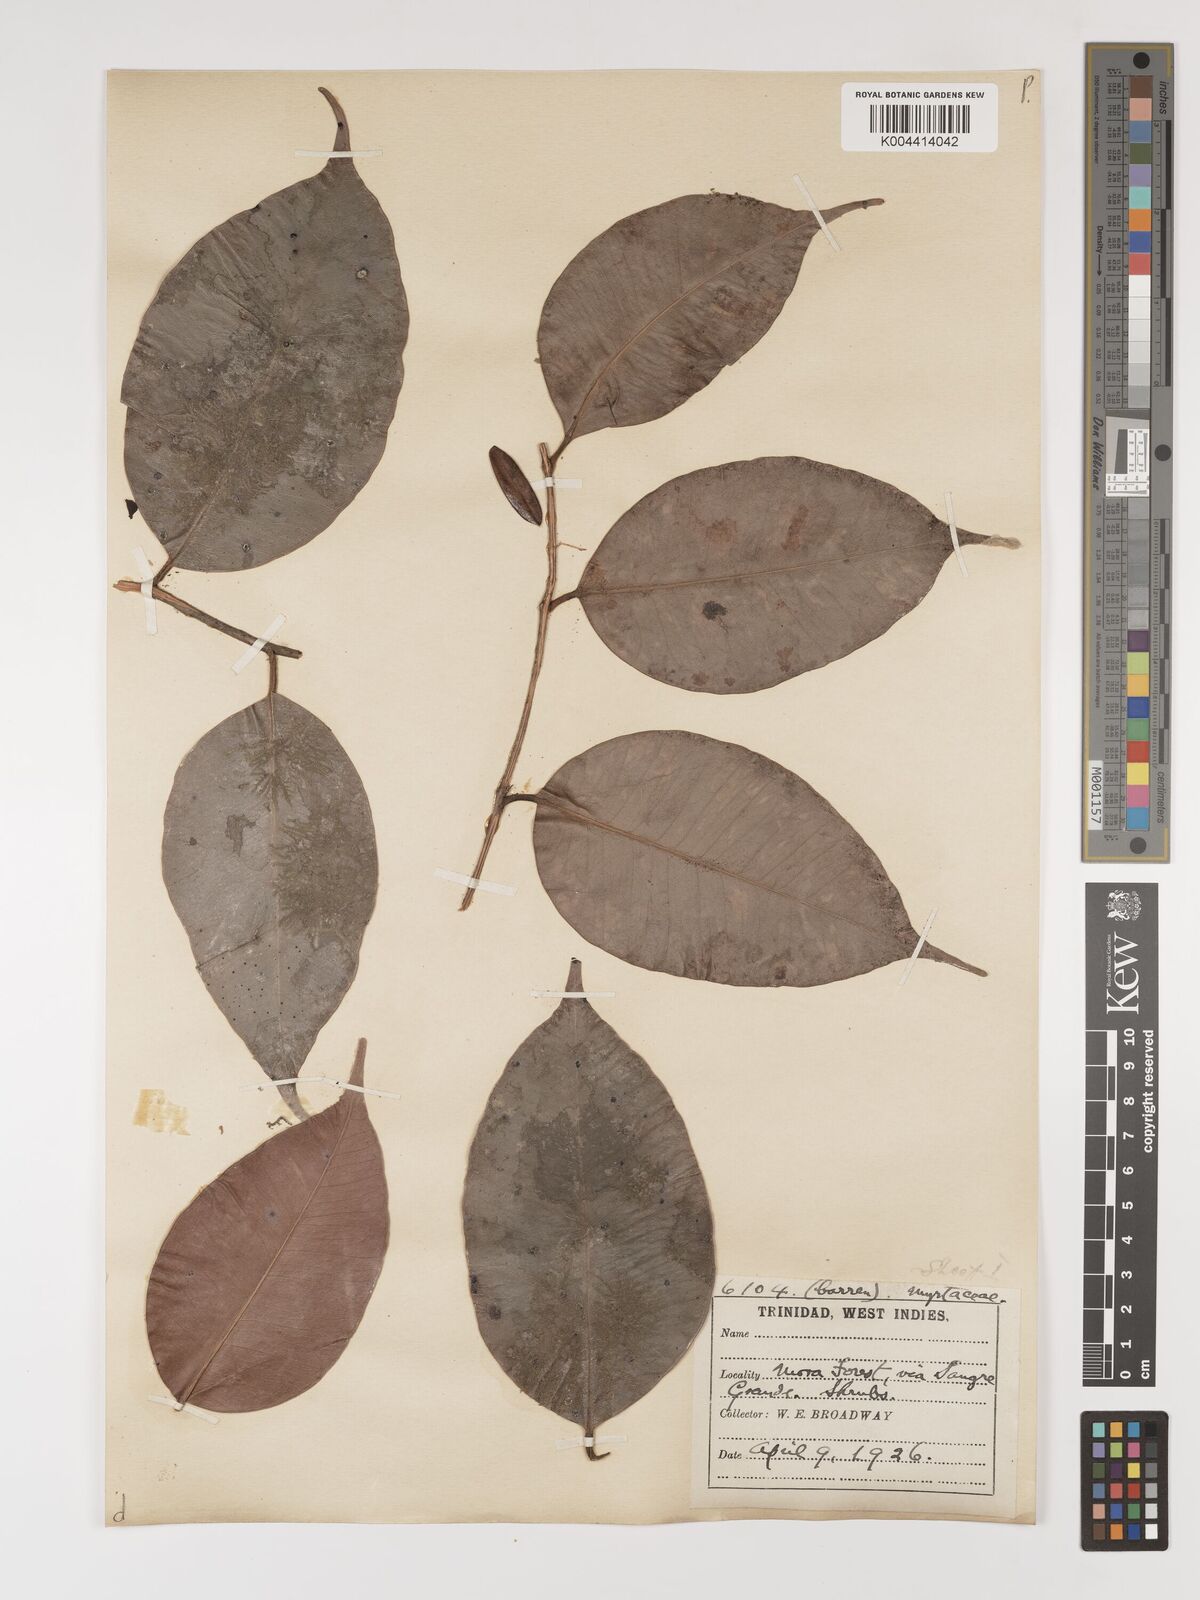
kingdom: Plantae
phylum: Tracheophyta
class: Magnoliopsida
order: Myrtales
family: Myrtaceae
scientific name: Myrtaceae
